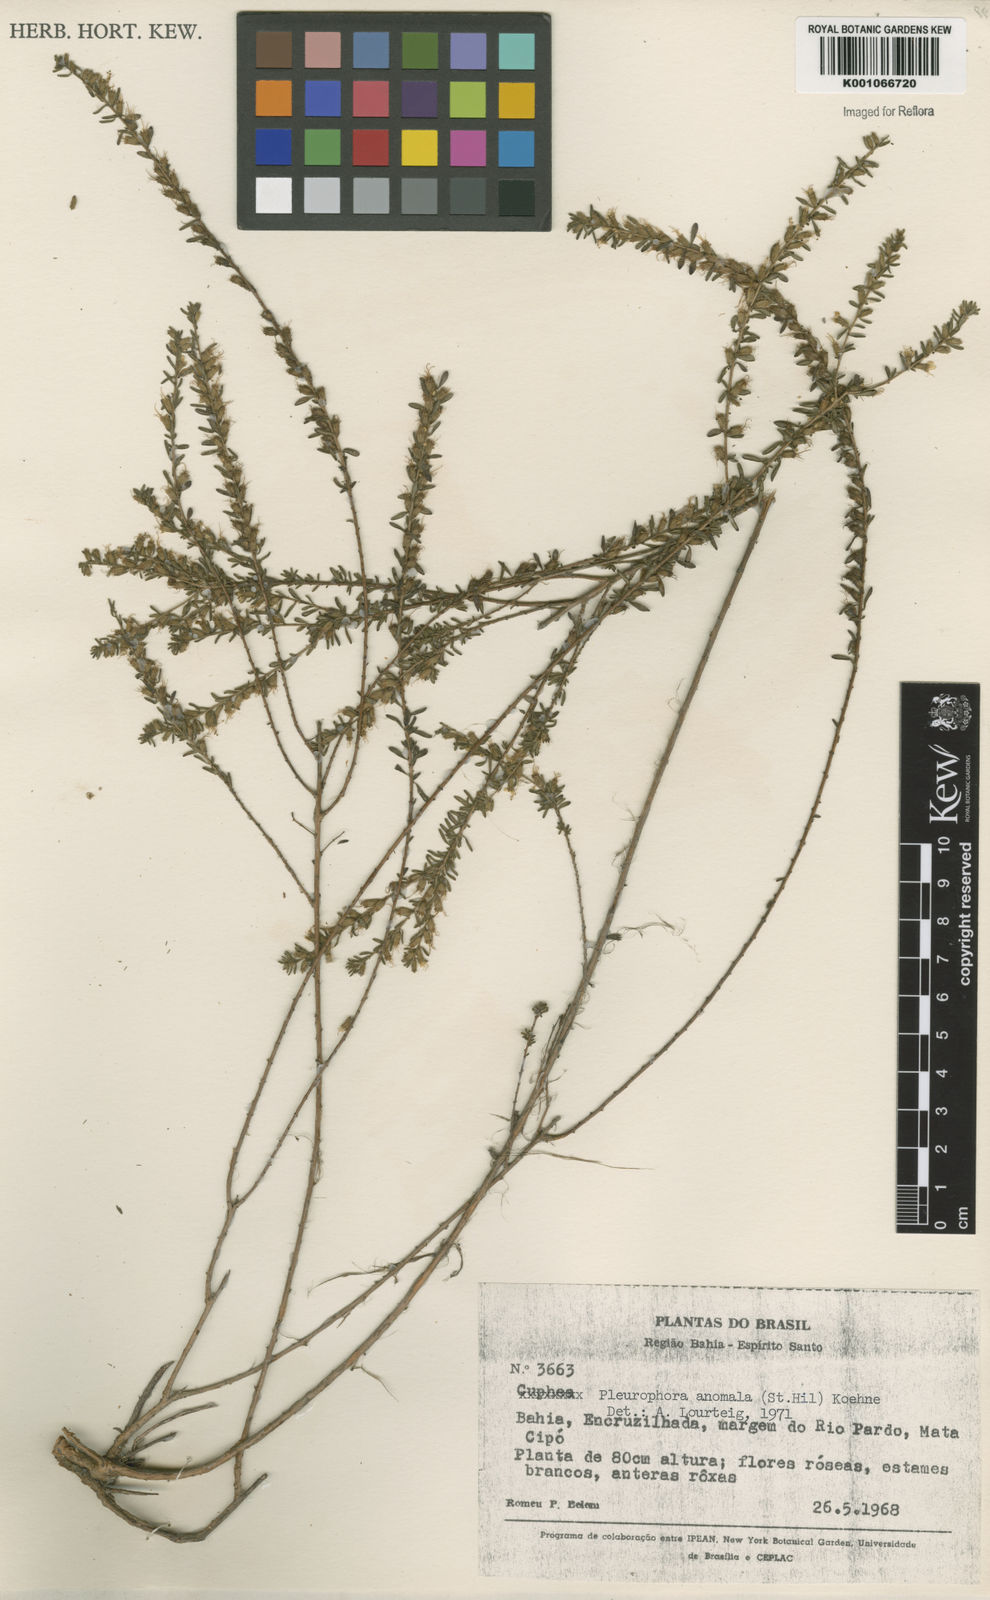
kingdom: Plantae
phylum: Tracheophyta
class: Magnoliopsida
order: Myrtales
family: Lythraceae
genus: Pleurophora
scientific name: Pleurophora anomala
